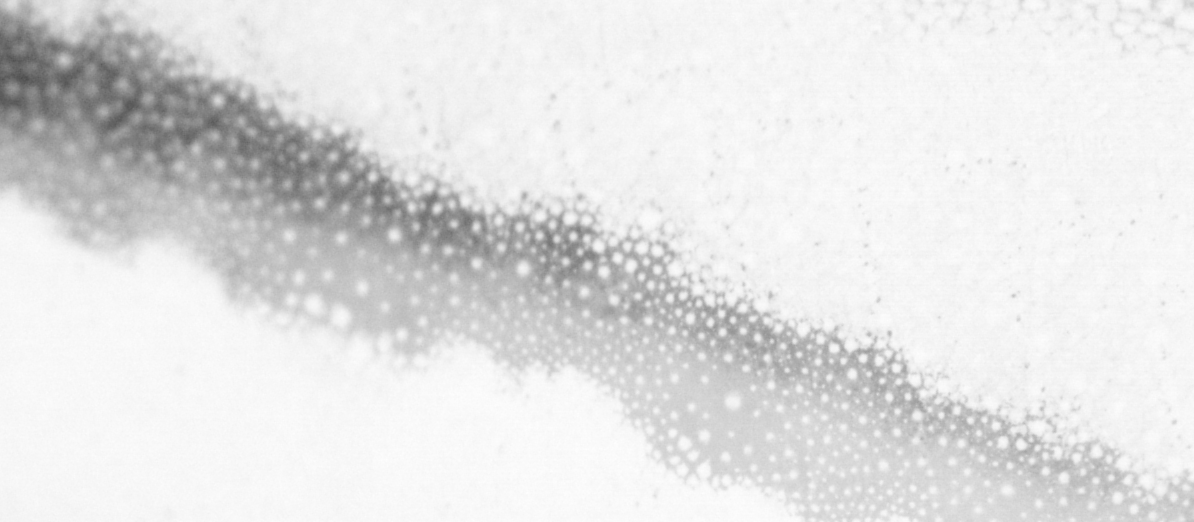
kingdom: Animalia
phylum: Chordata
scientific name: Chordata
